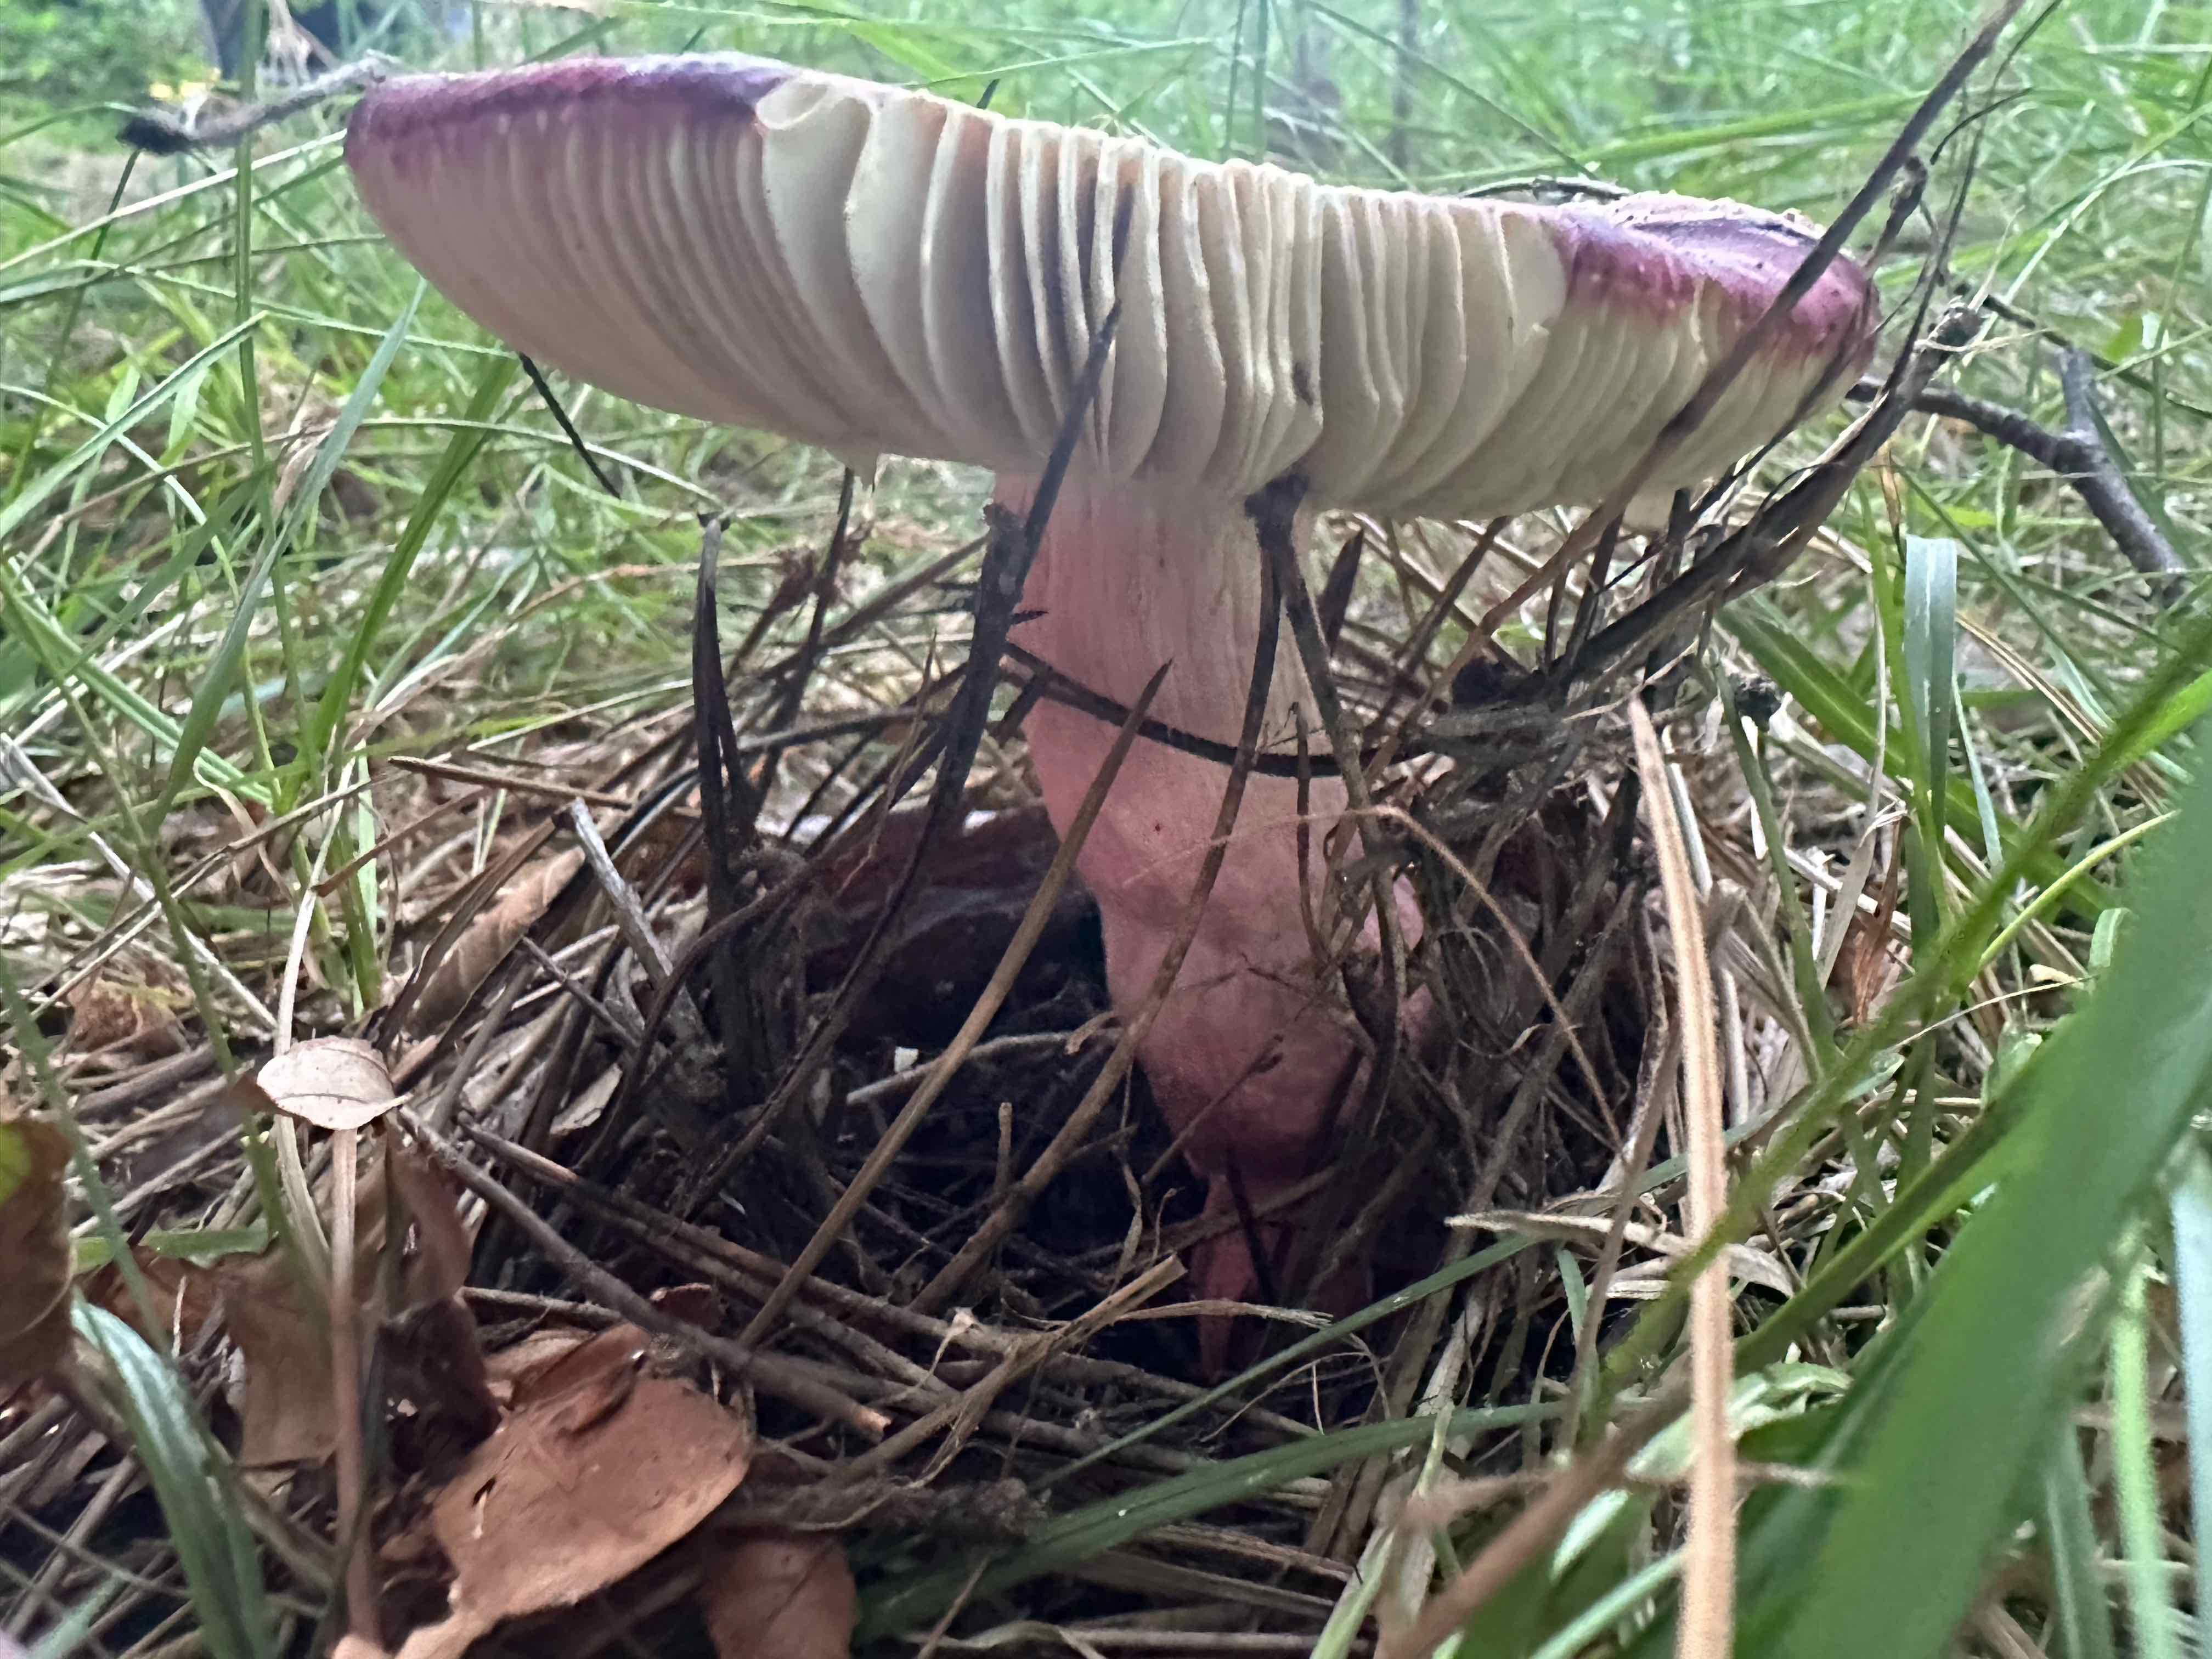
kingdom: Fungi
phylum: Basidiomycota
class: Agaricomycetes
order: Russulales
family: Russulaceae
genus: Russula
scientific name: Russula xerampelina
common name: hummer-skørhat
